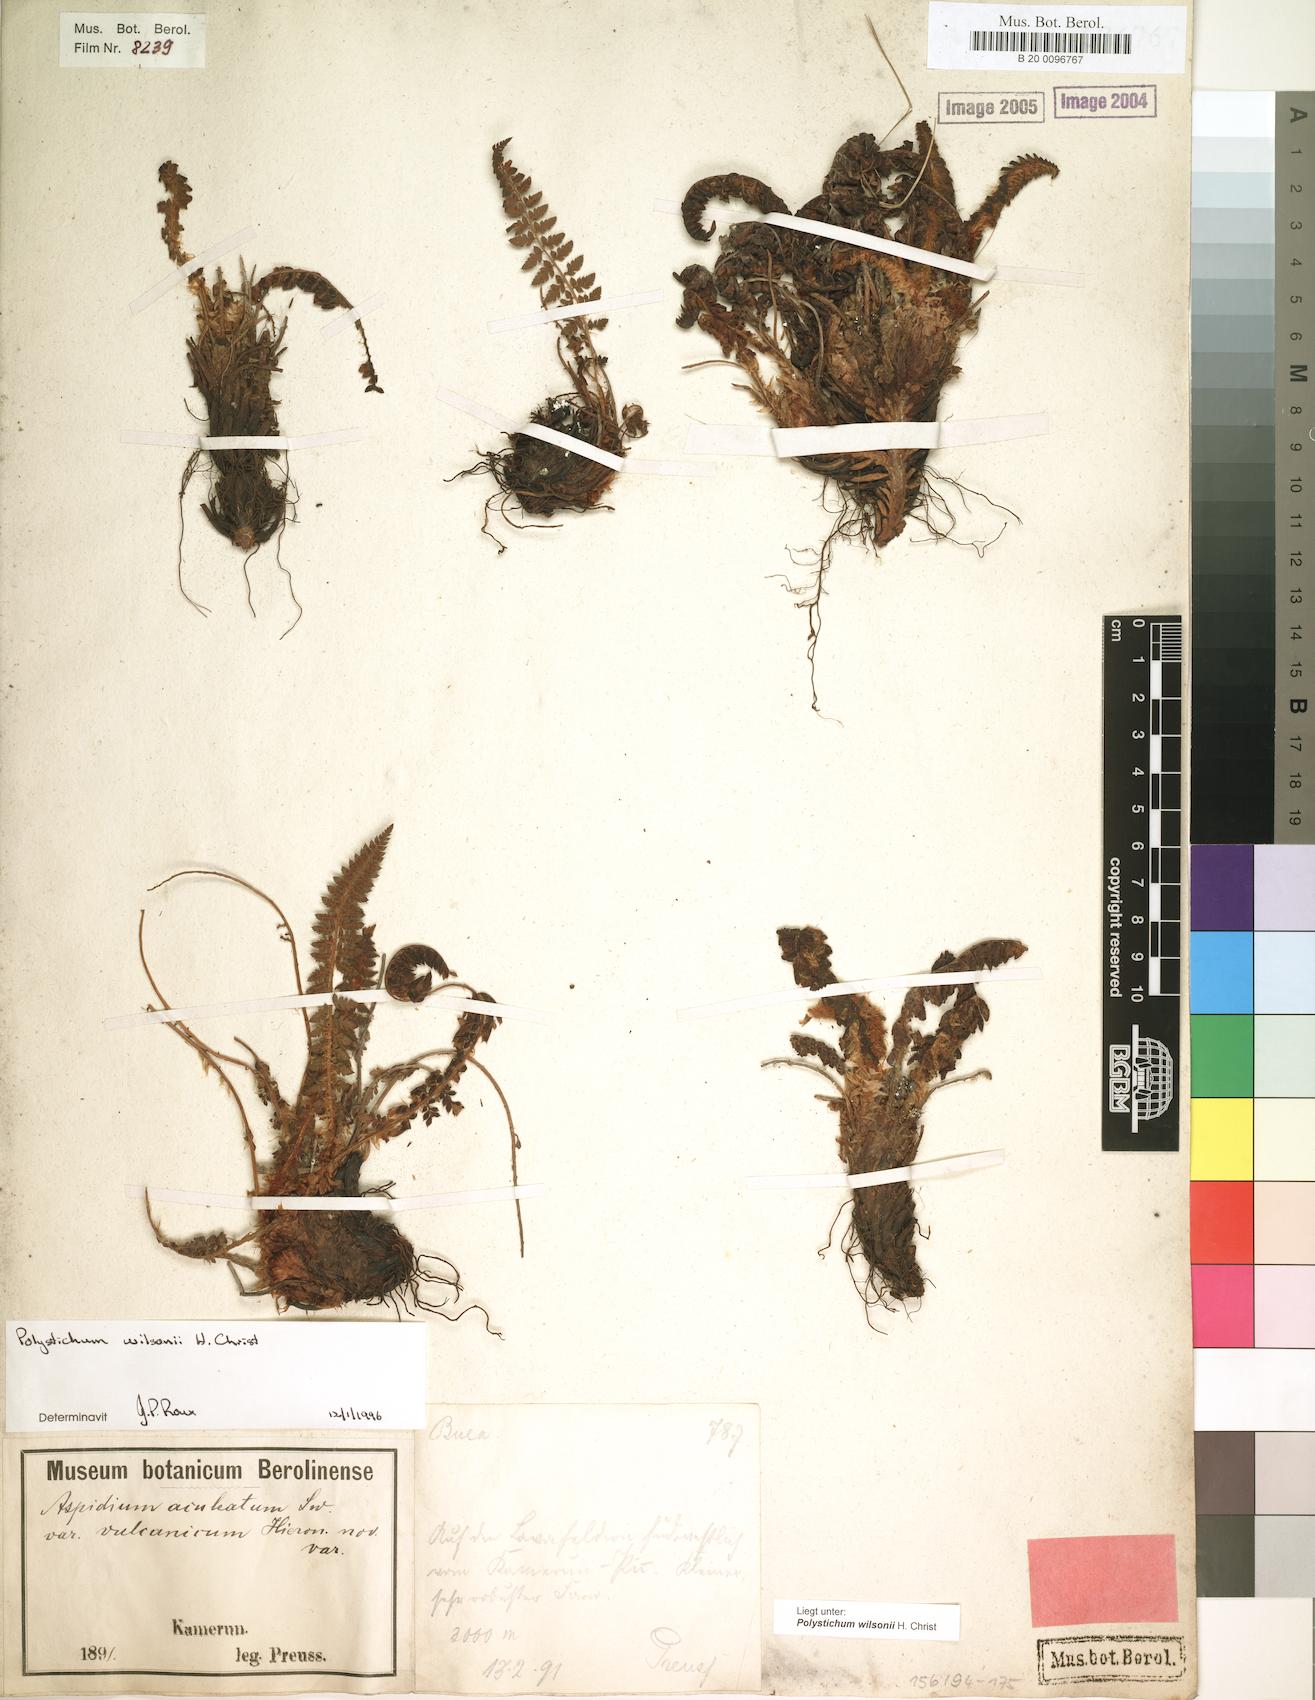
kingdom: Plantae
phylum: Tracheophyta
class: Polypodiopsida
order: Polypodiales
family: Dryopteridaceae
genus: Polystichum
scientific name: Polystichum sinense
